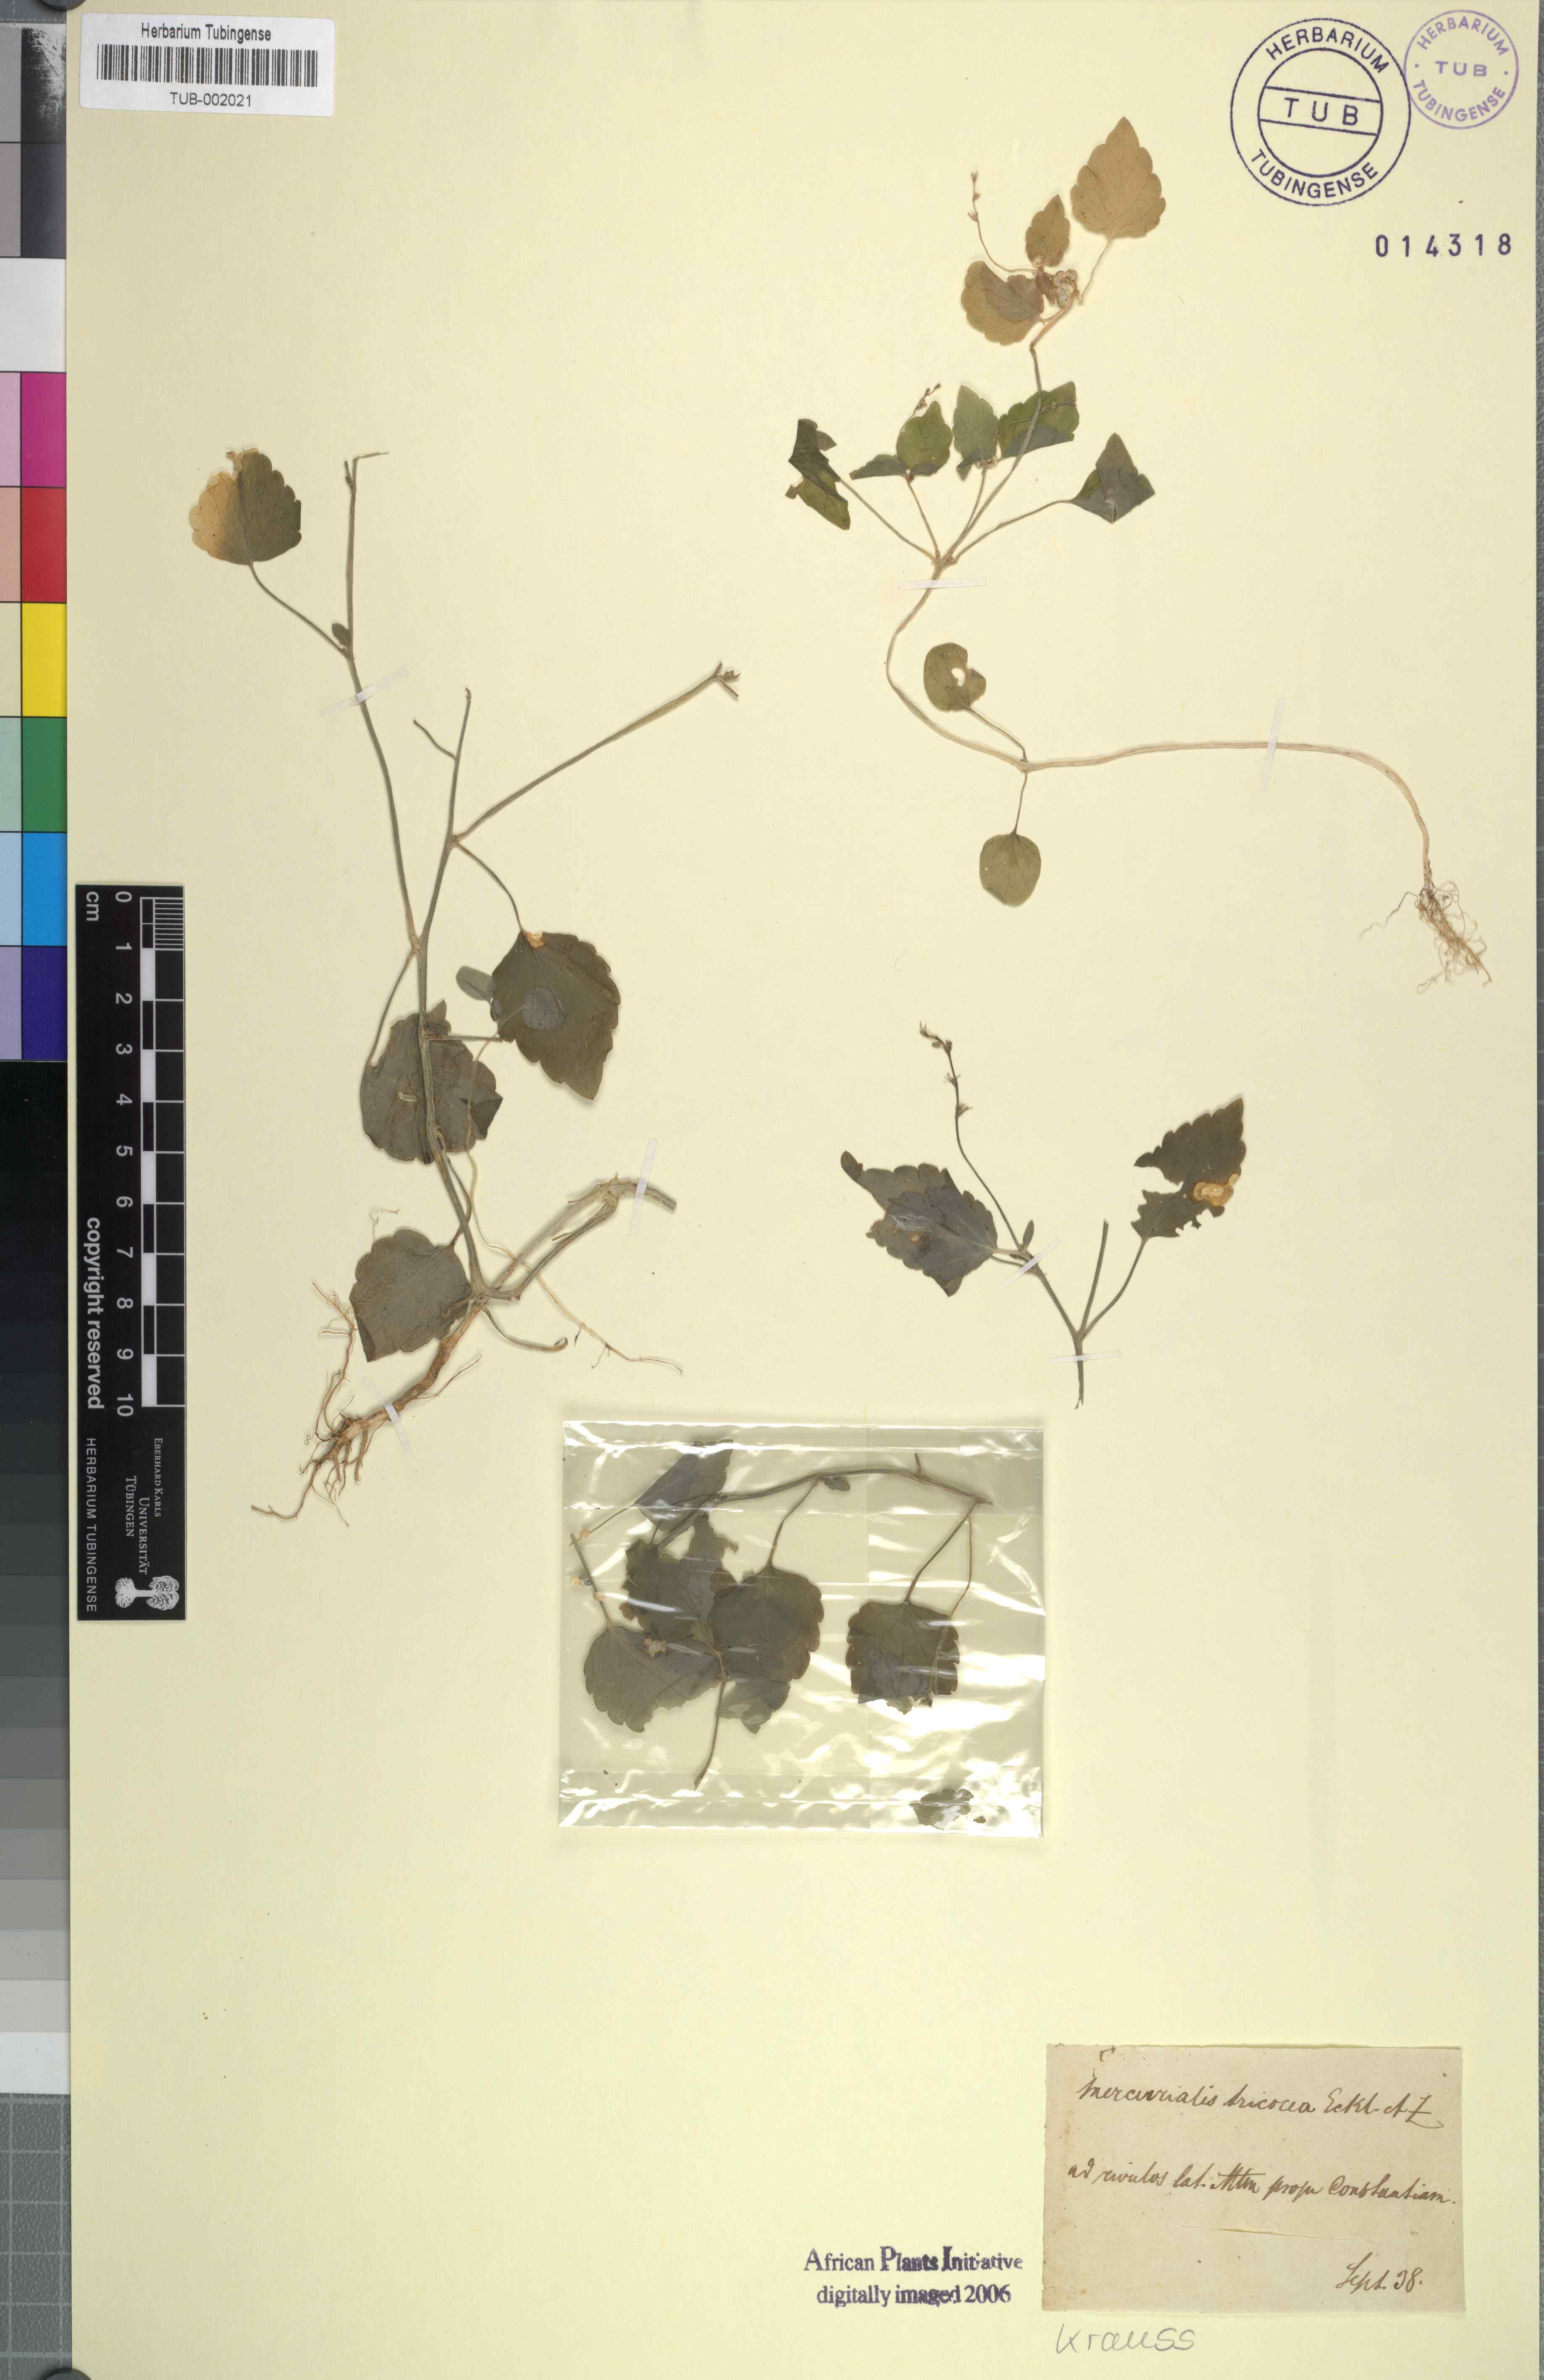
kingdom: Plantae
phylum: Tracheophyta
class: Magnoliopsida
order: Malpighiales
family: Euphorbiaceae
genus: Leidesia
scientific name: Leidesia procumbens
